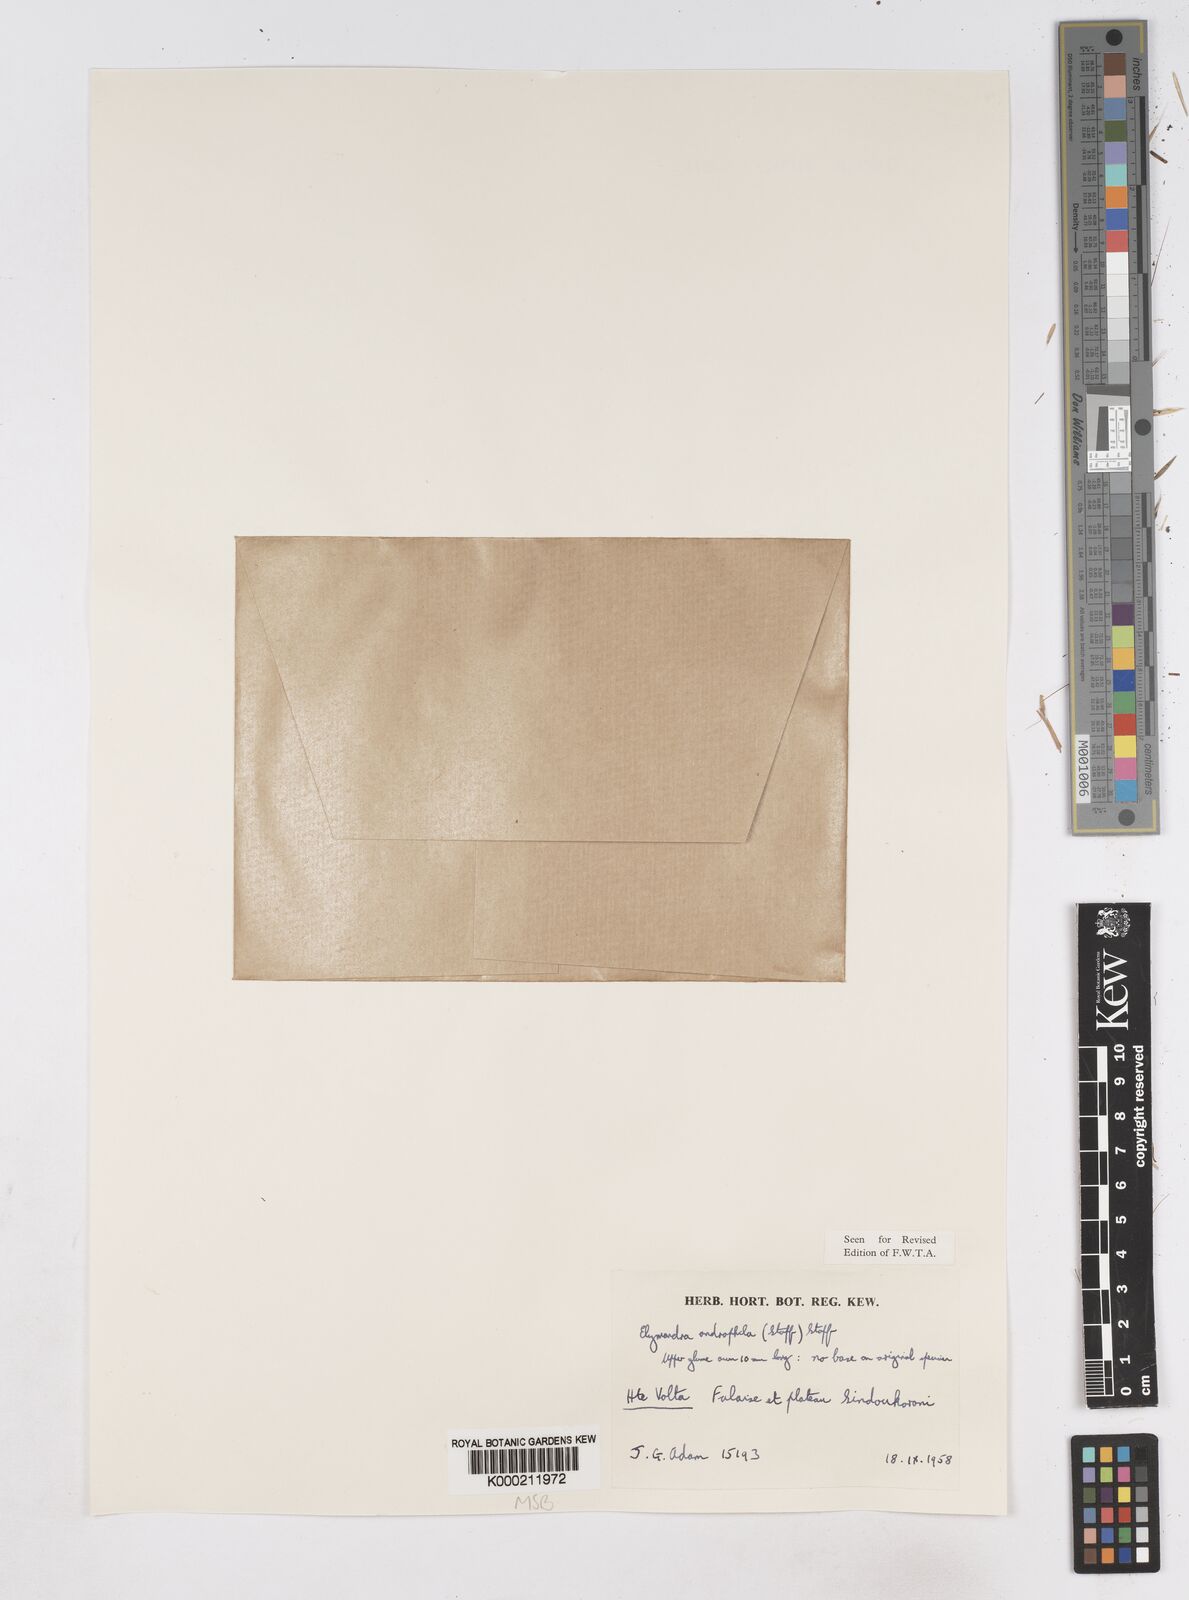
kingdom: Plantae
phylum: Tracheophyta
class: Liliopsida
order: Poales
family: Poaceae
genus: Elymandra
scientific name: Elymandra androphila
